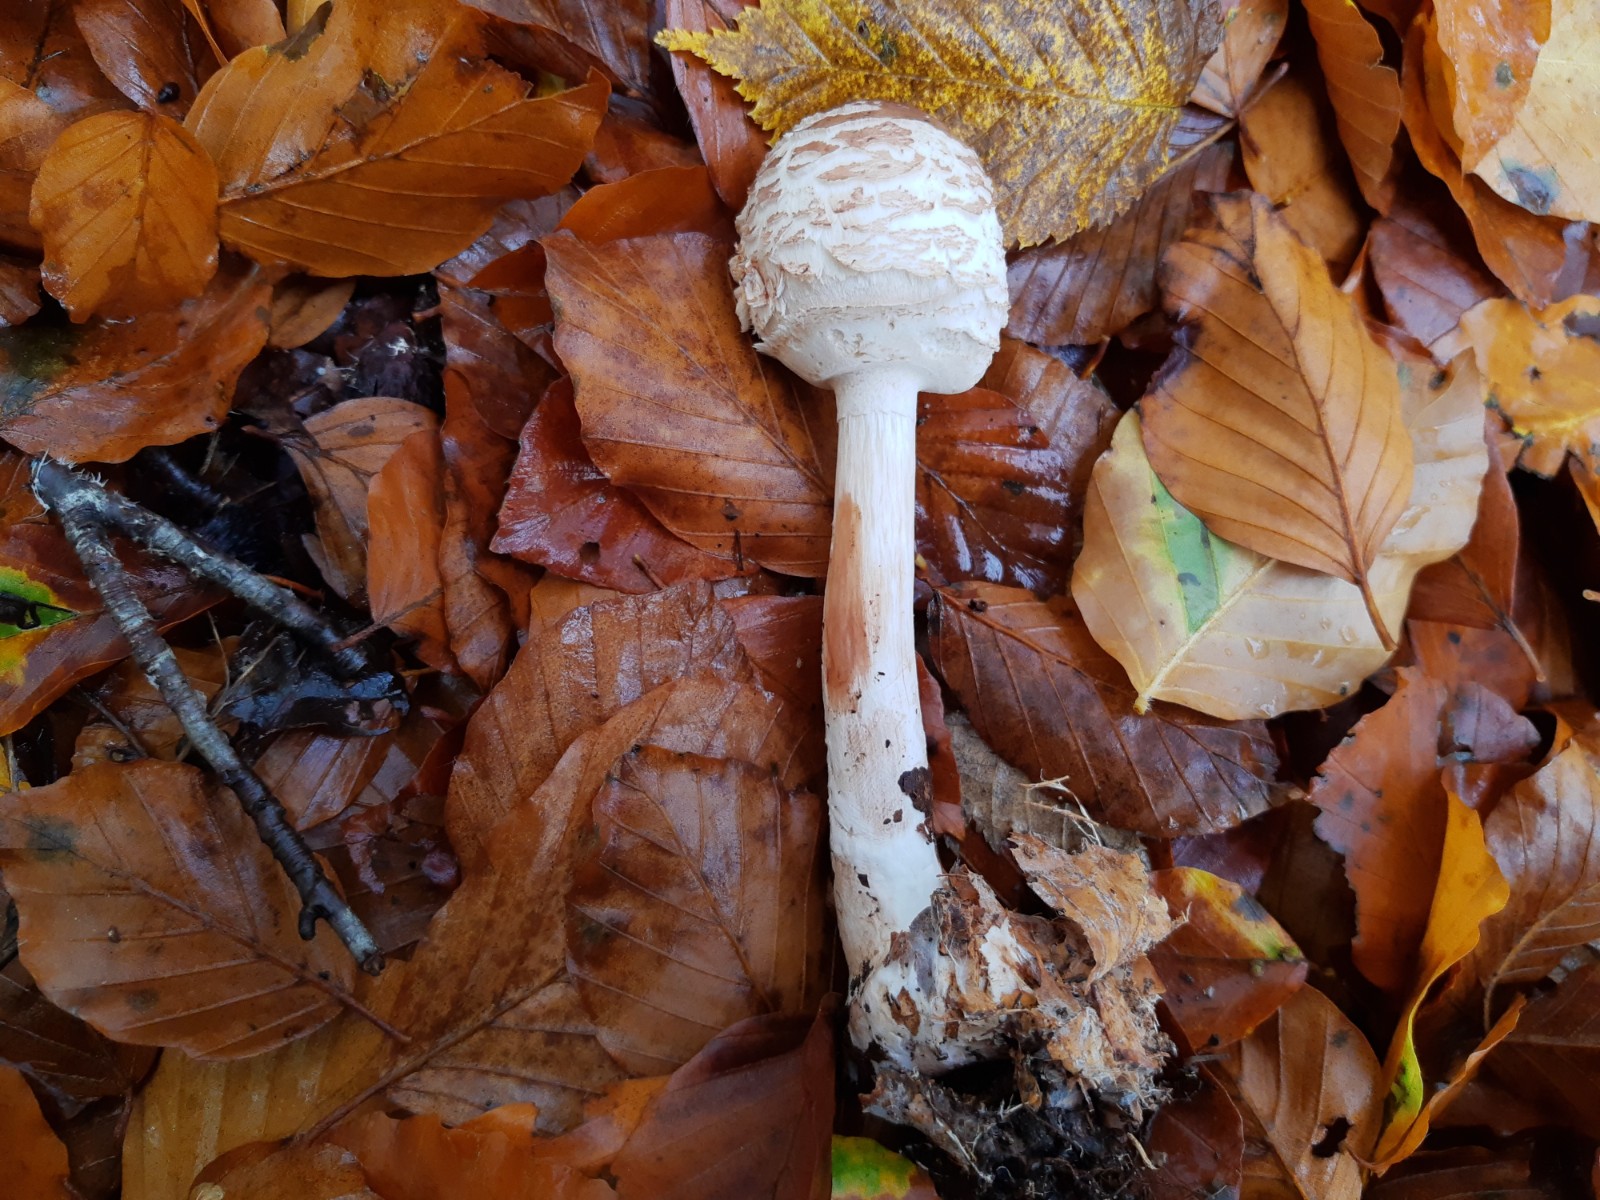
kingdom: Fungi
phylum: Basidiomycota
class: Agaricomycetes
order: Agaricales
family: Agaricaceae
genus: Chlorophyllum
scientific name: Chlorophyllum olivieri
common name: almindelig rabarberhat
